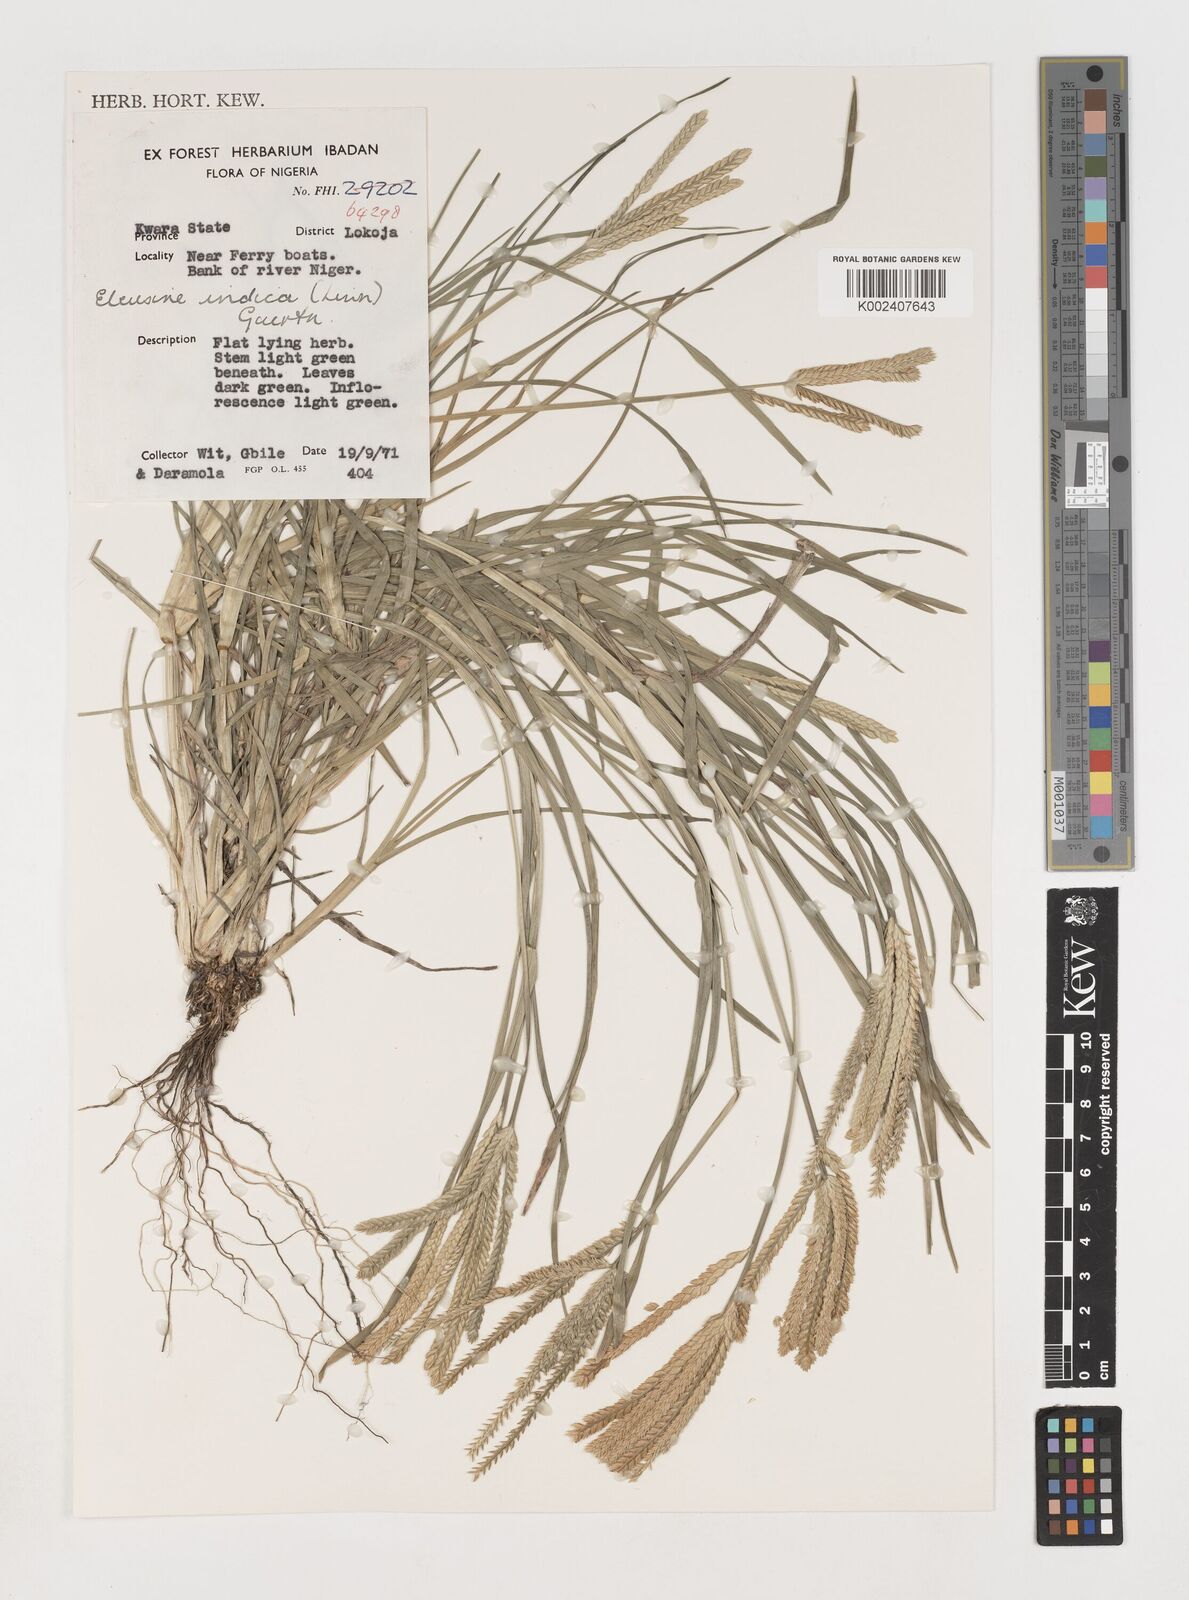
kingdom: Plantae
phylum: Tracheophyta
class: Liliopsida
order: Poales
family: Poaceae
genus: Eleusine
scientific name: Eleusine indica
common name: Yard-grass
